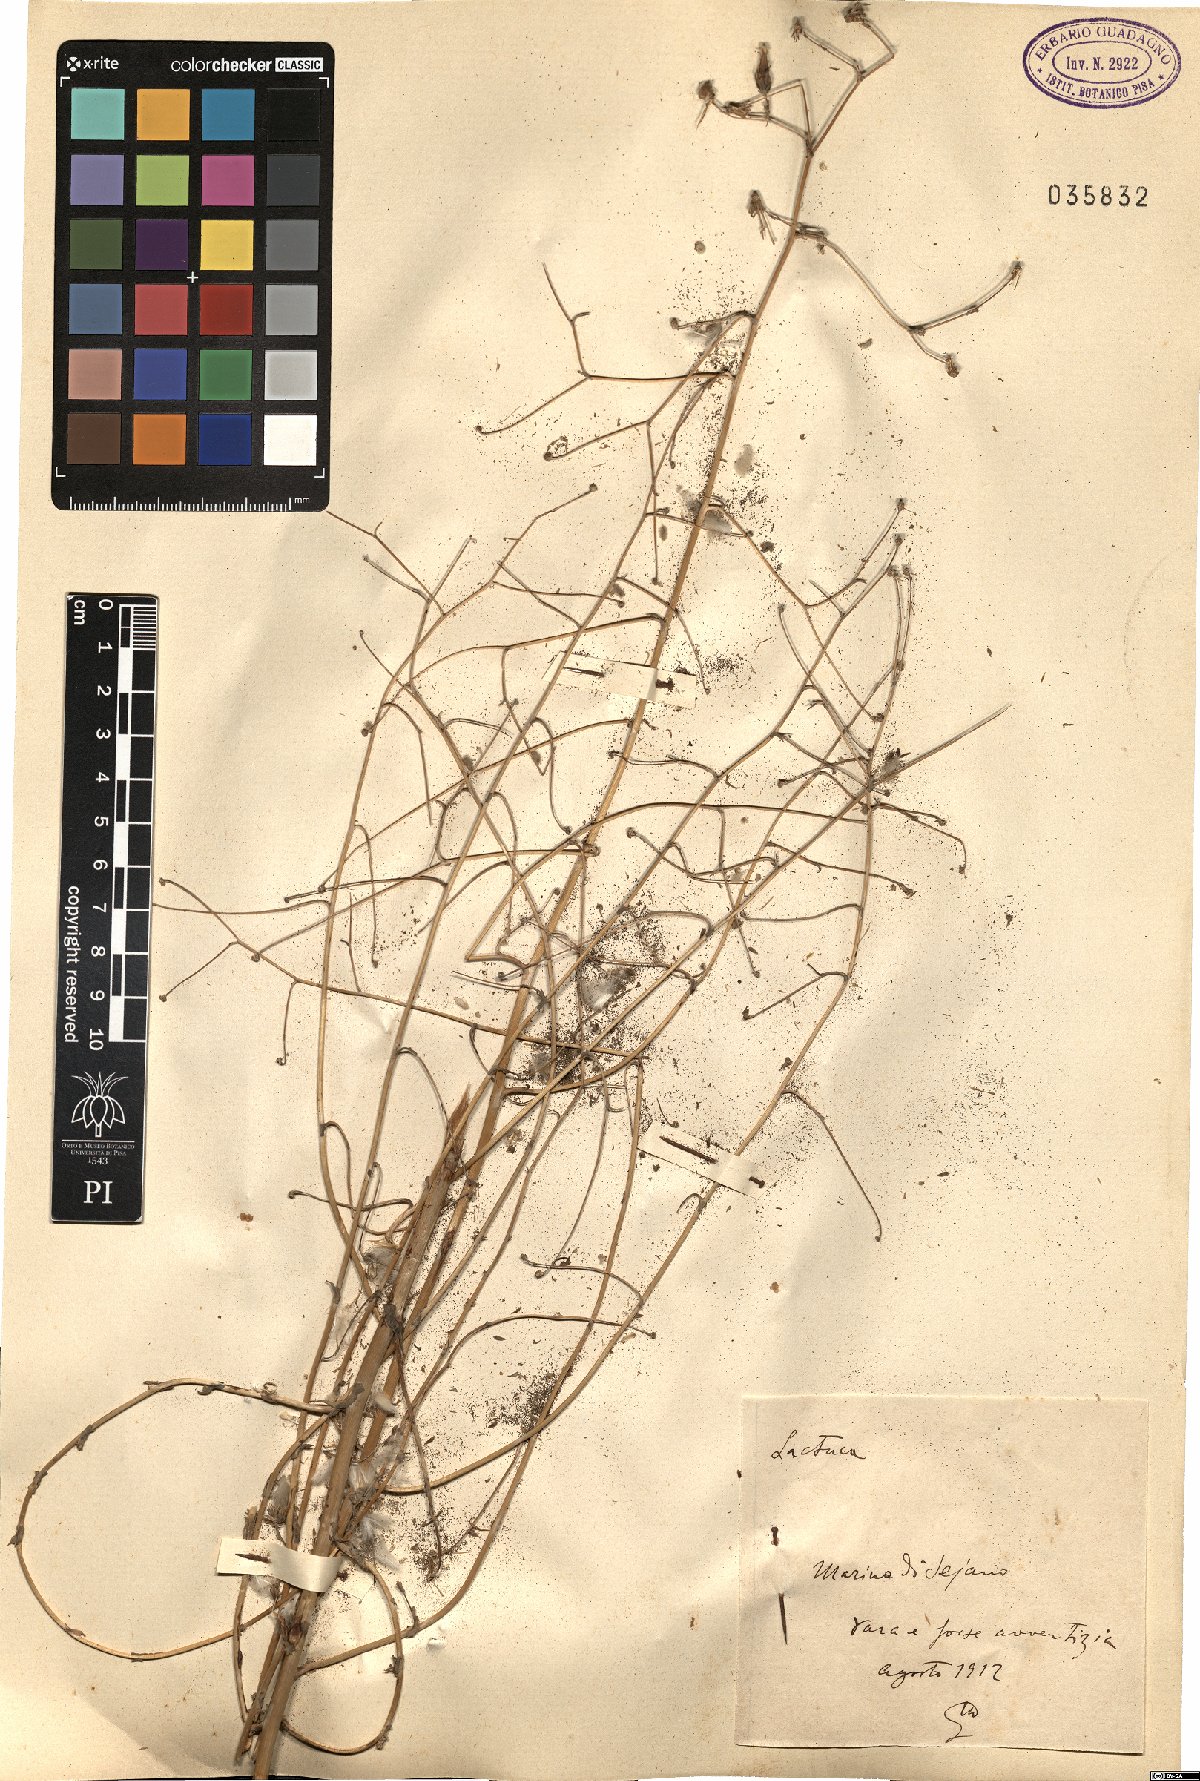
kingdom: Plantae
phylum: Tracheophyta
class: Magnoliopsida
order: Asterales
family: Asteraceae
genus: Lactuca
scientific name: Lactuca
